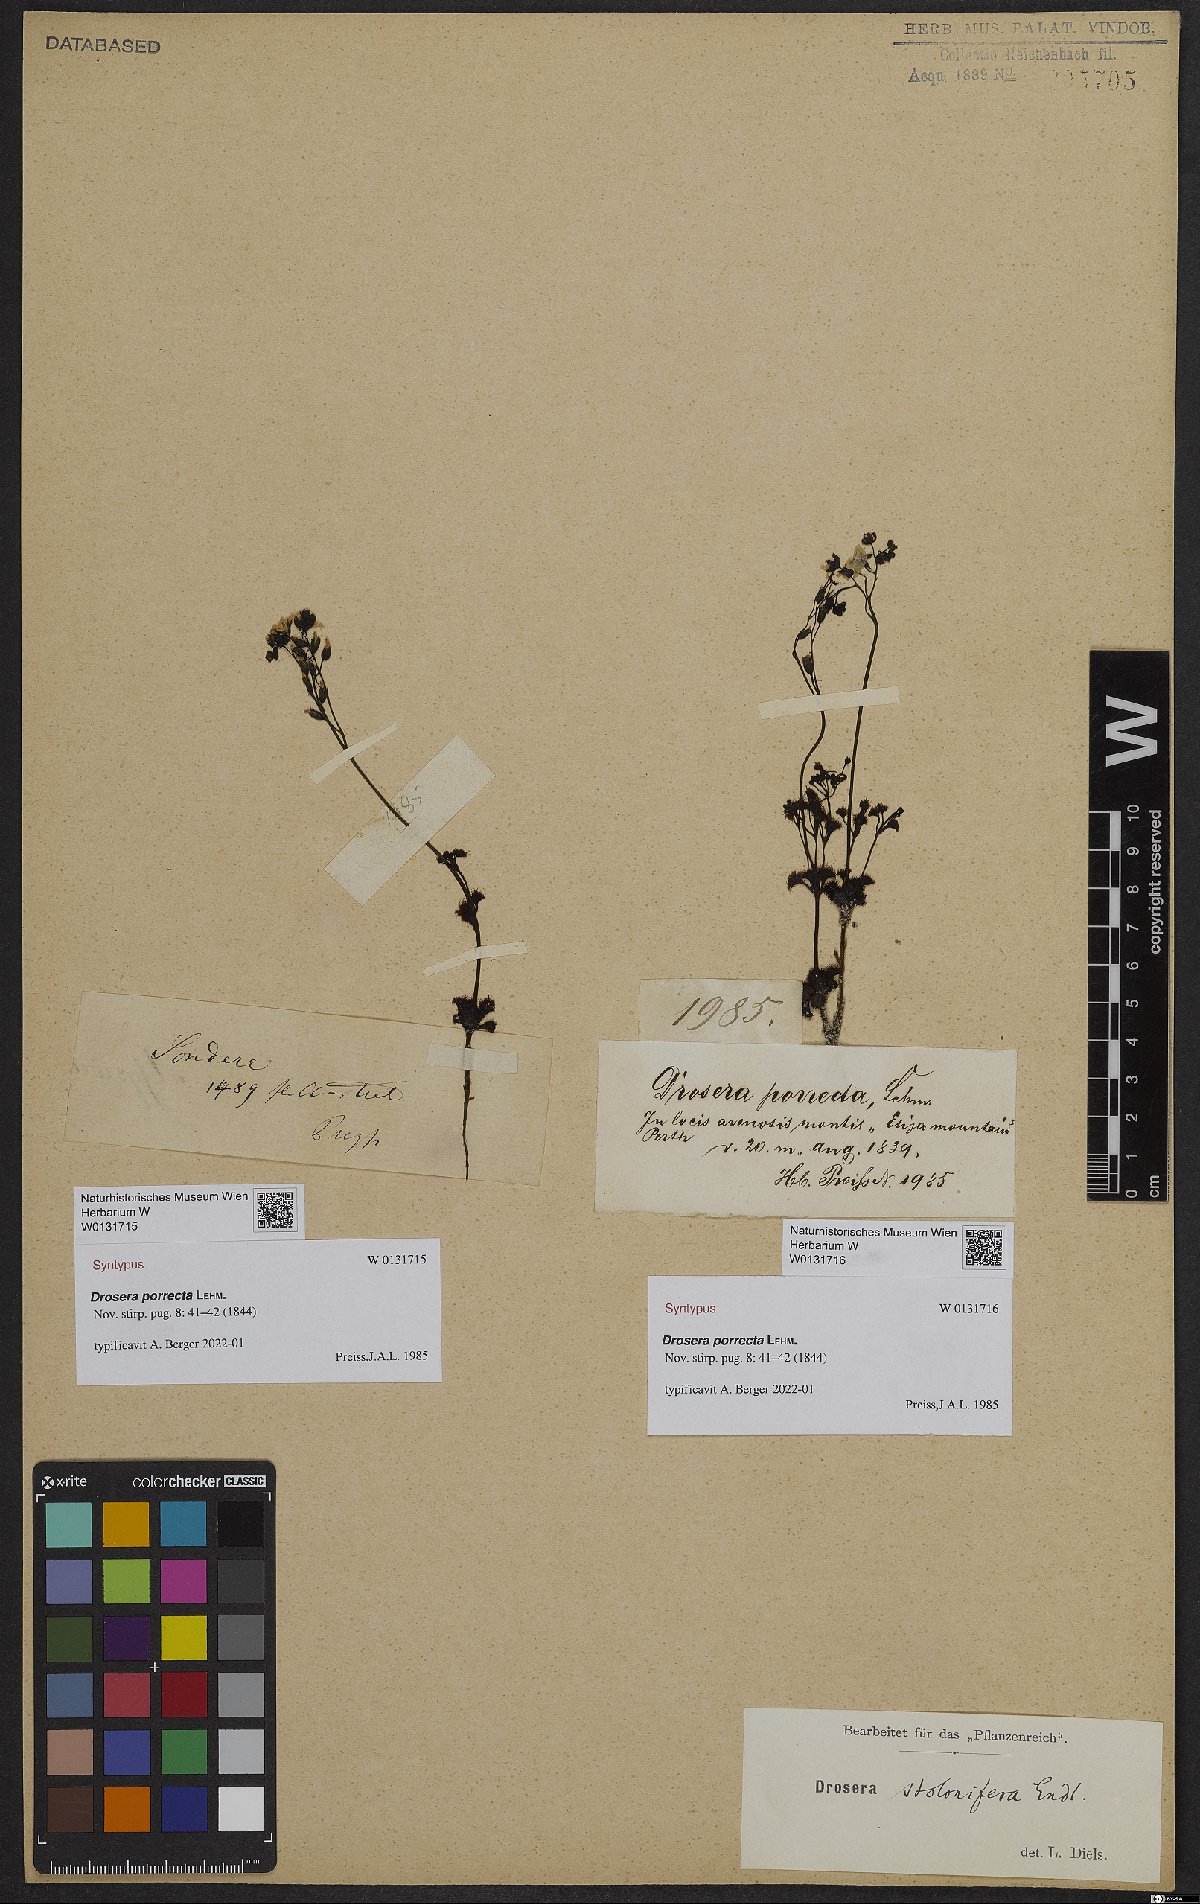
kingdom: Plantae
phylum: Tracheophyta
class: Magnoliopsida
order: Caryophyllales
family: Droseraceae
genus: Drosera
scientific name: Drosera stolonifera
